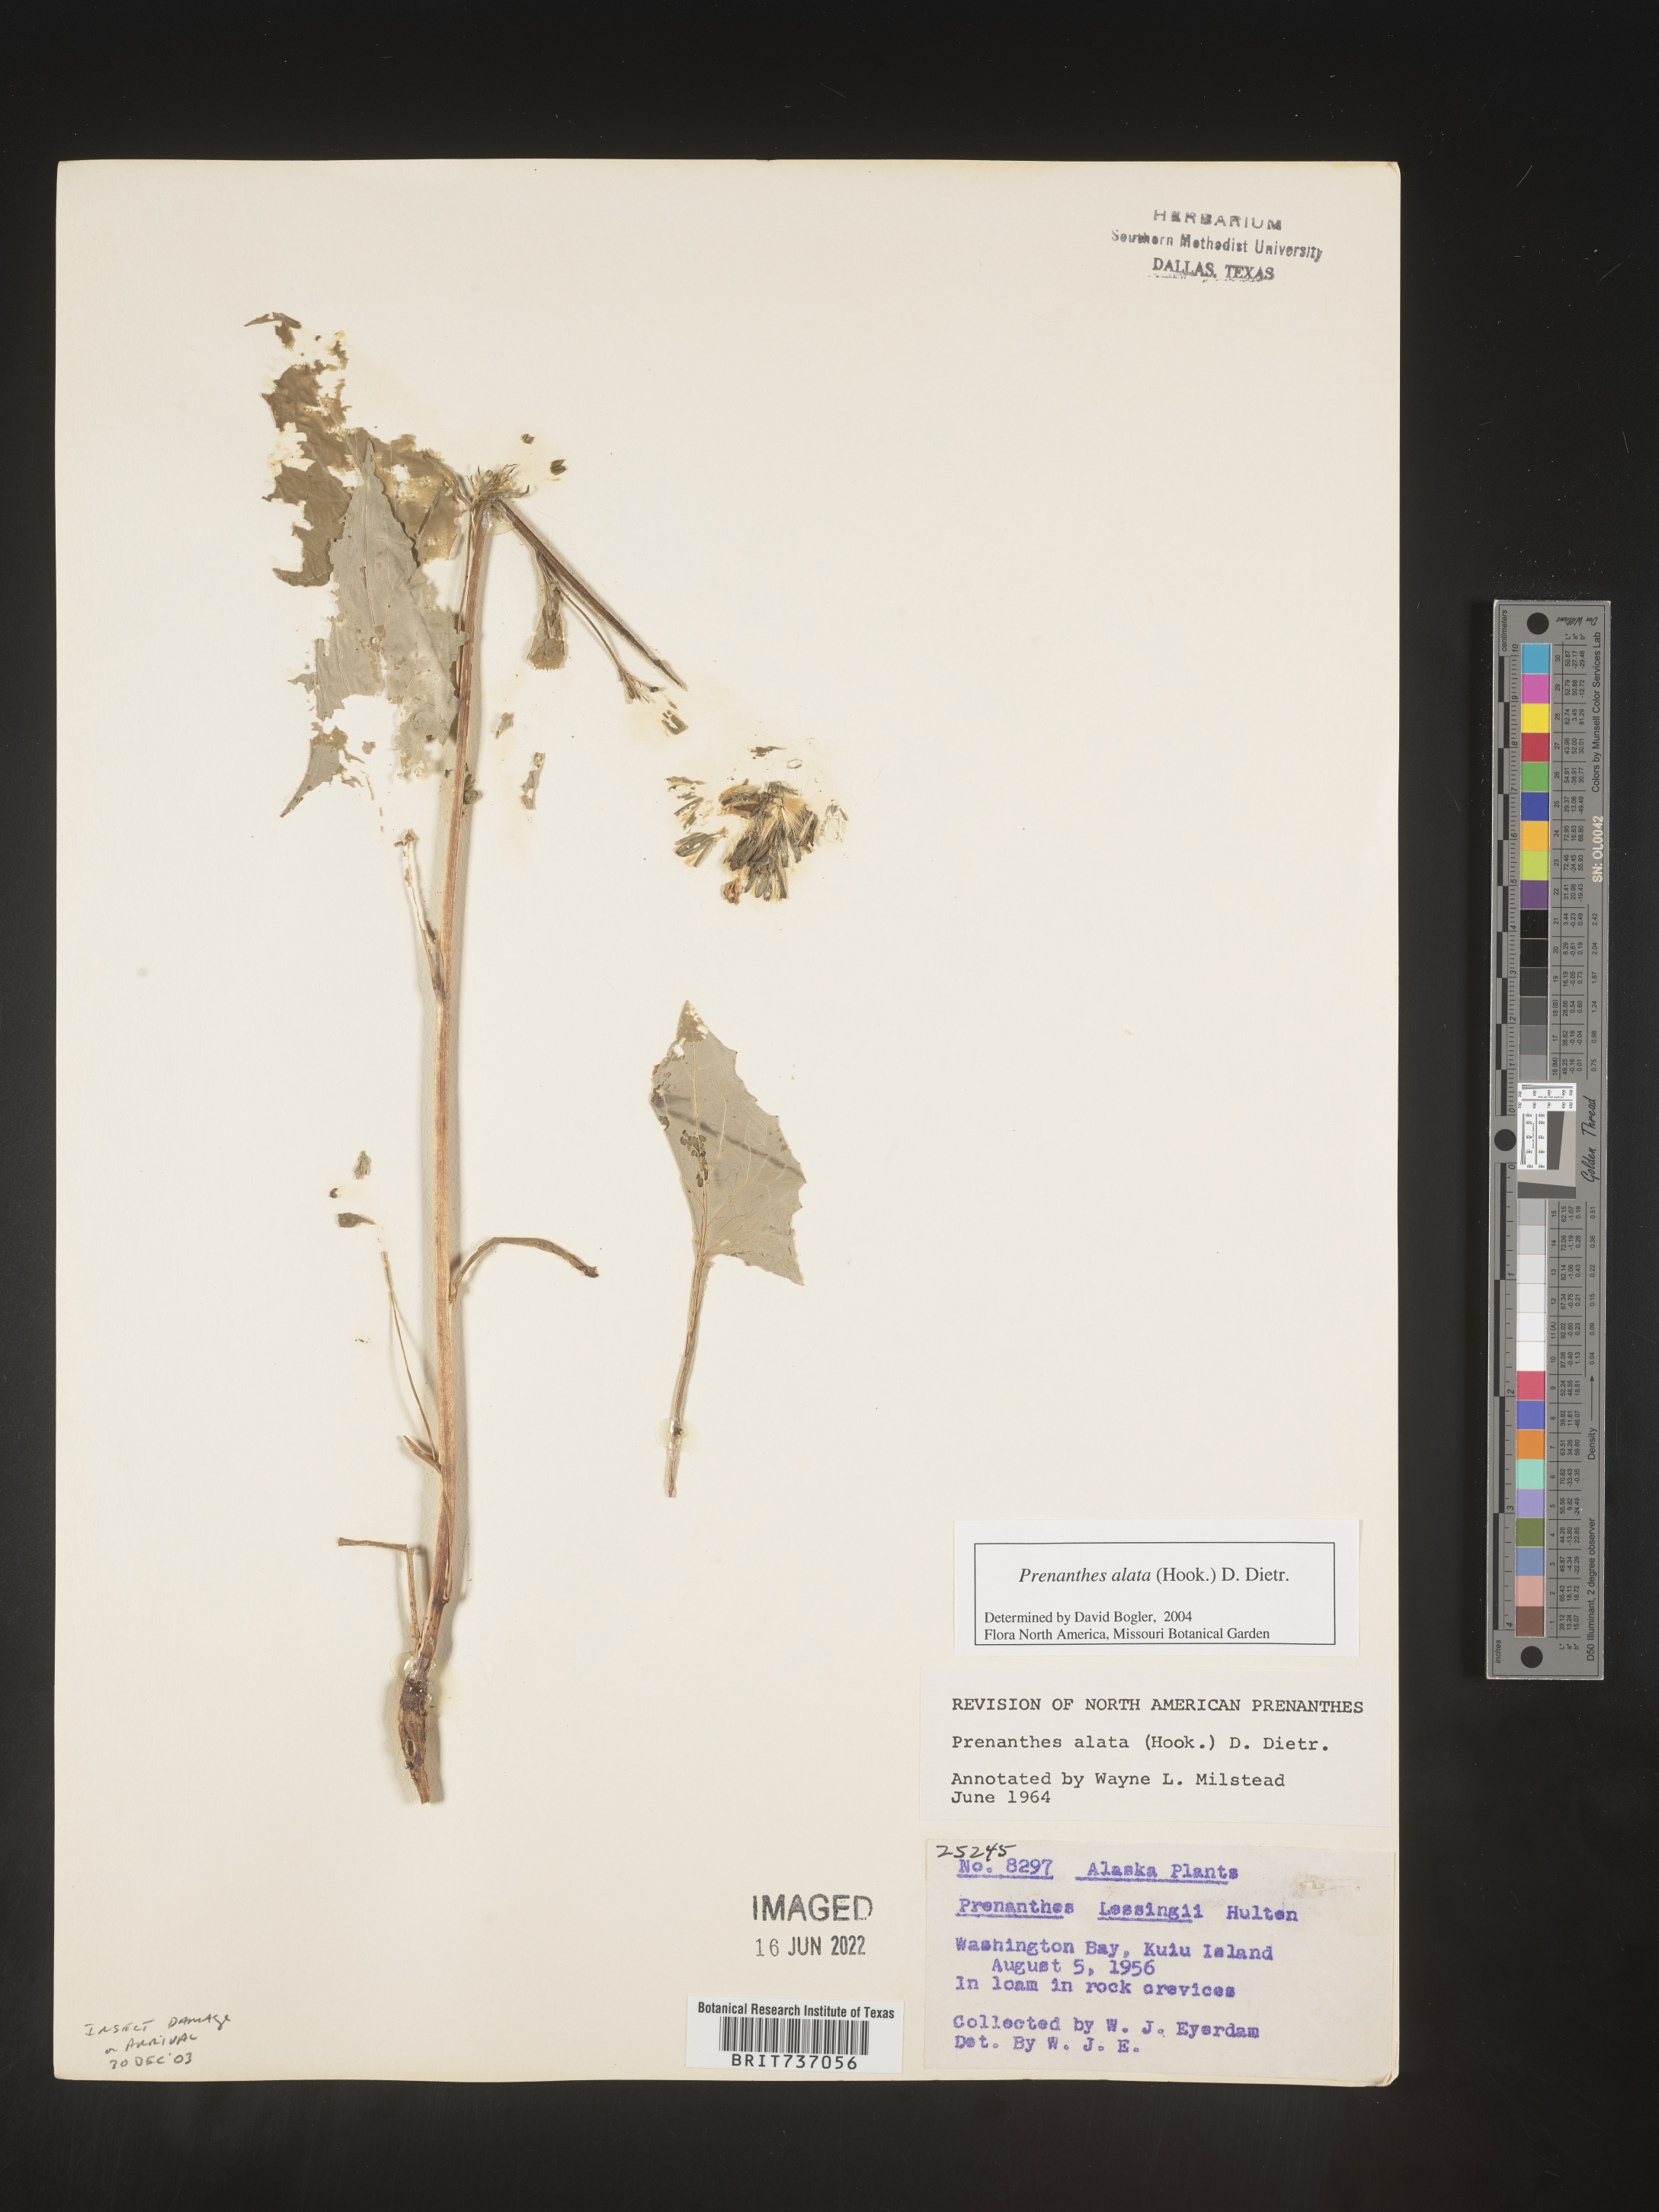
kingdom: Plantae
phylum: Tracheophyta
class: Magnoliopsida
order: Asterales
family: Asteraceae
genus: Melanoseris
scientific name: Melanoseris violifolia
